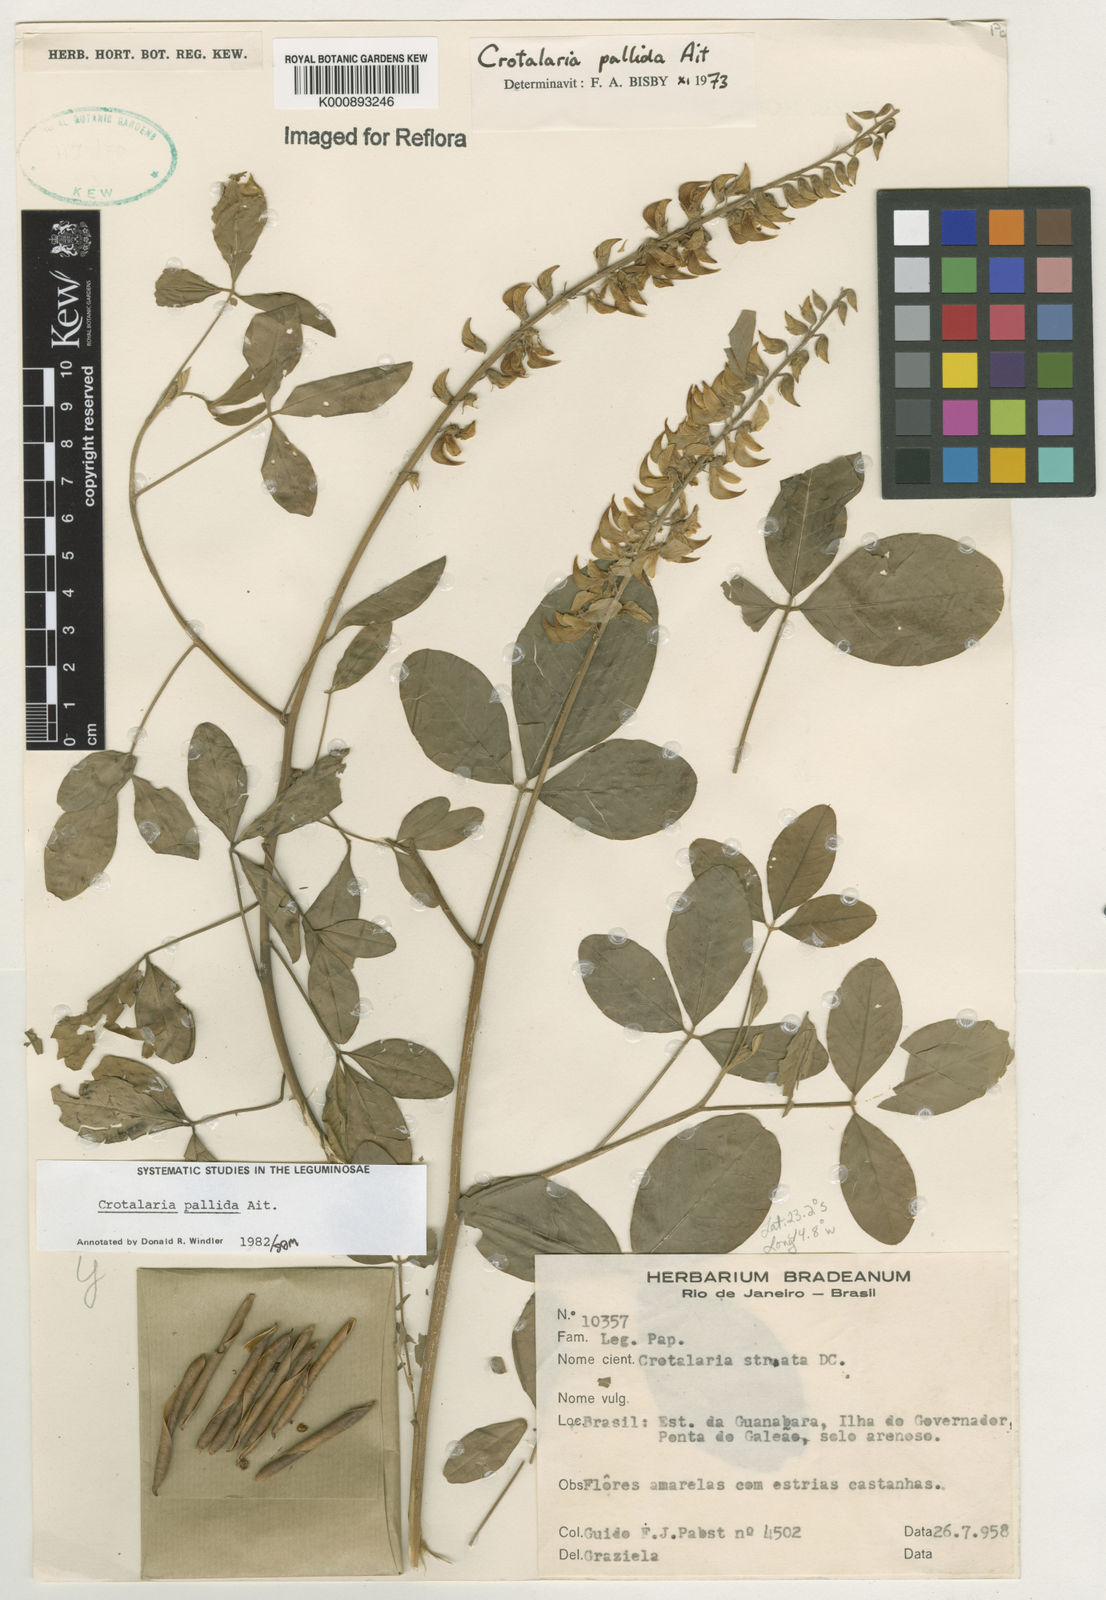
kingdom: Plantae
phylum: Tracheophyta
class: Magnoliopsida
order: Fabales
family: Fabaceae
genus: Crotalaria
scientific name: Crotalaria pallida
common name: Smooth rattlebox
